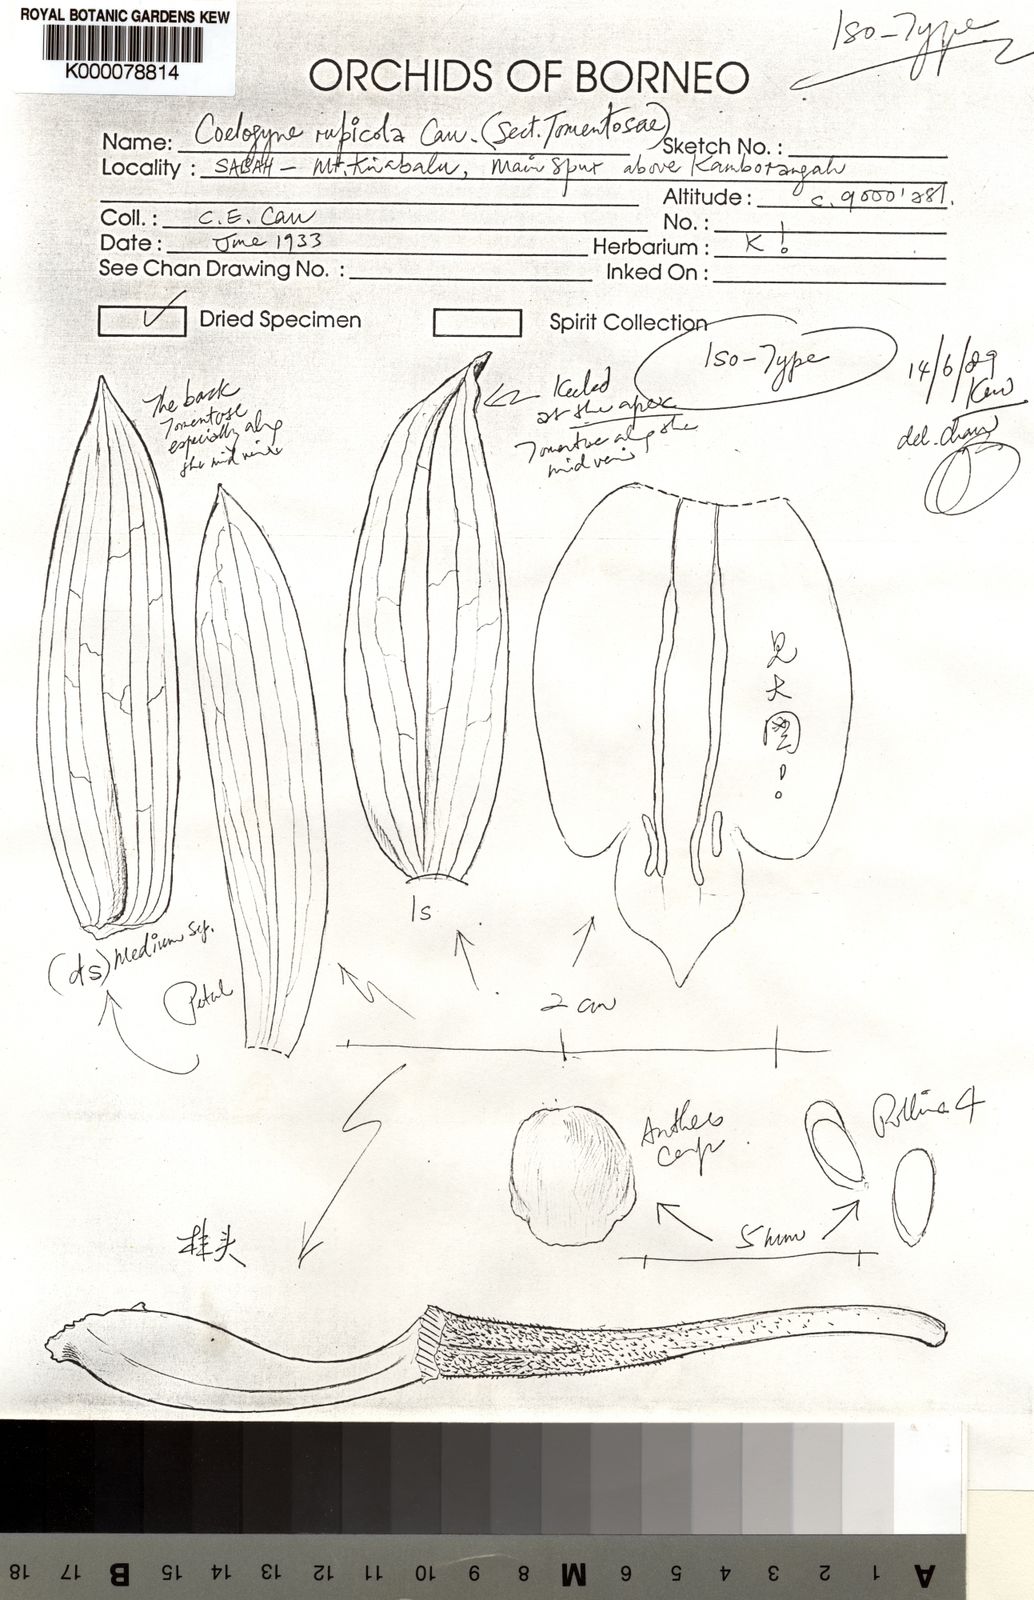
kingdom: Plantae
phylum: Tracheophyta
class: Liliopsida
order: Asparagales
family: Orchidaceae
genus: Coelogyne
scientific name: Coelogyne rupicola
